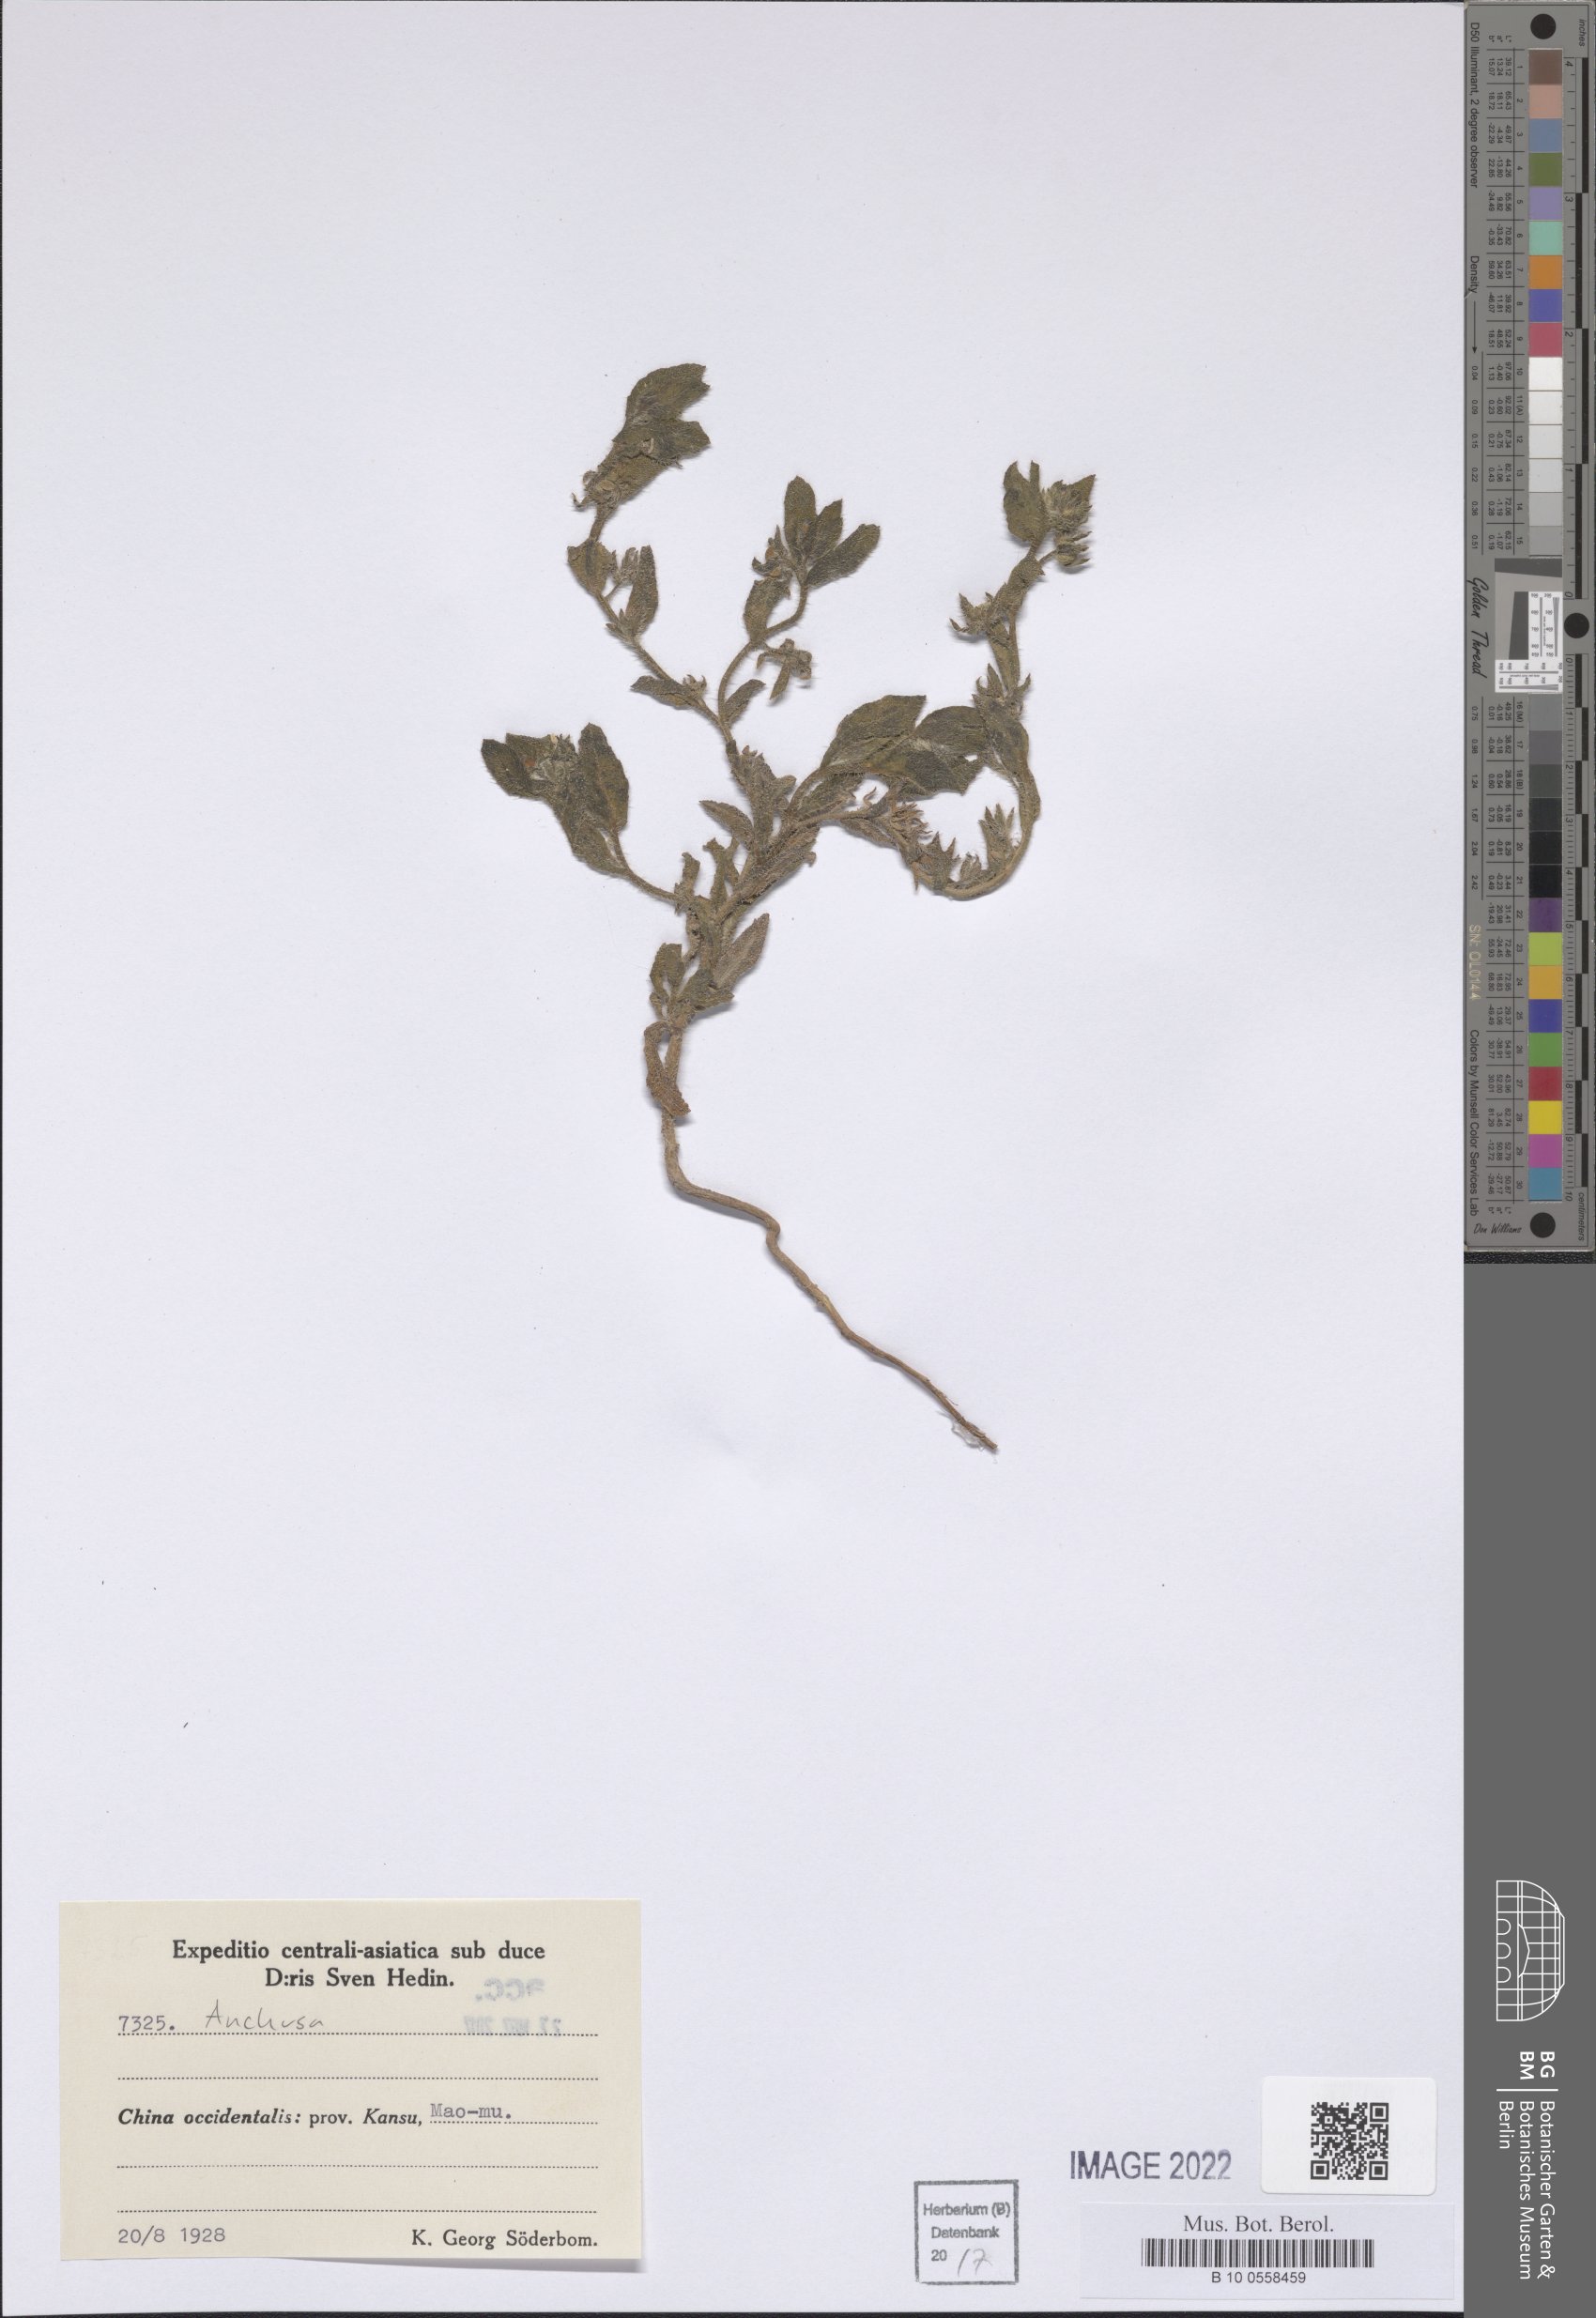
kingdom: Plantae
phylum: Tracheophyta
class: Magnoliopsida
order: Boraginales
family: Boraginaceae
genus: Anchusa
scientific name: Anchusa
